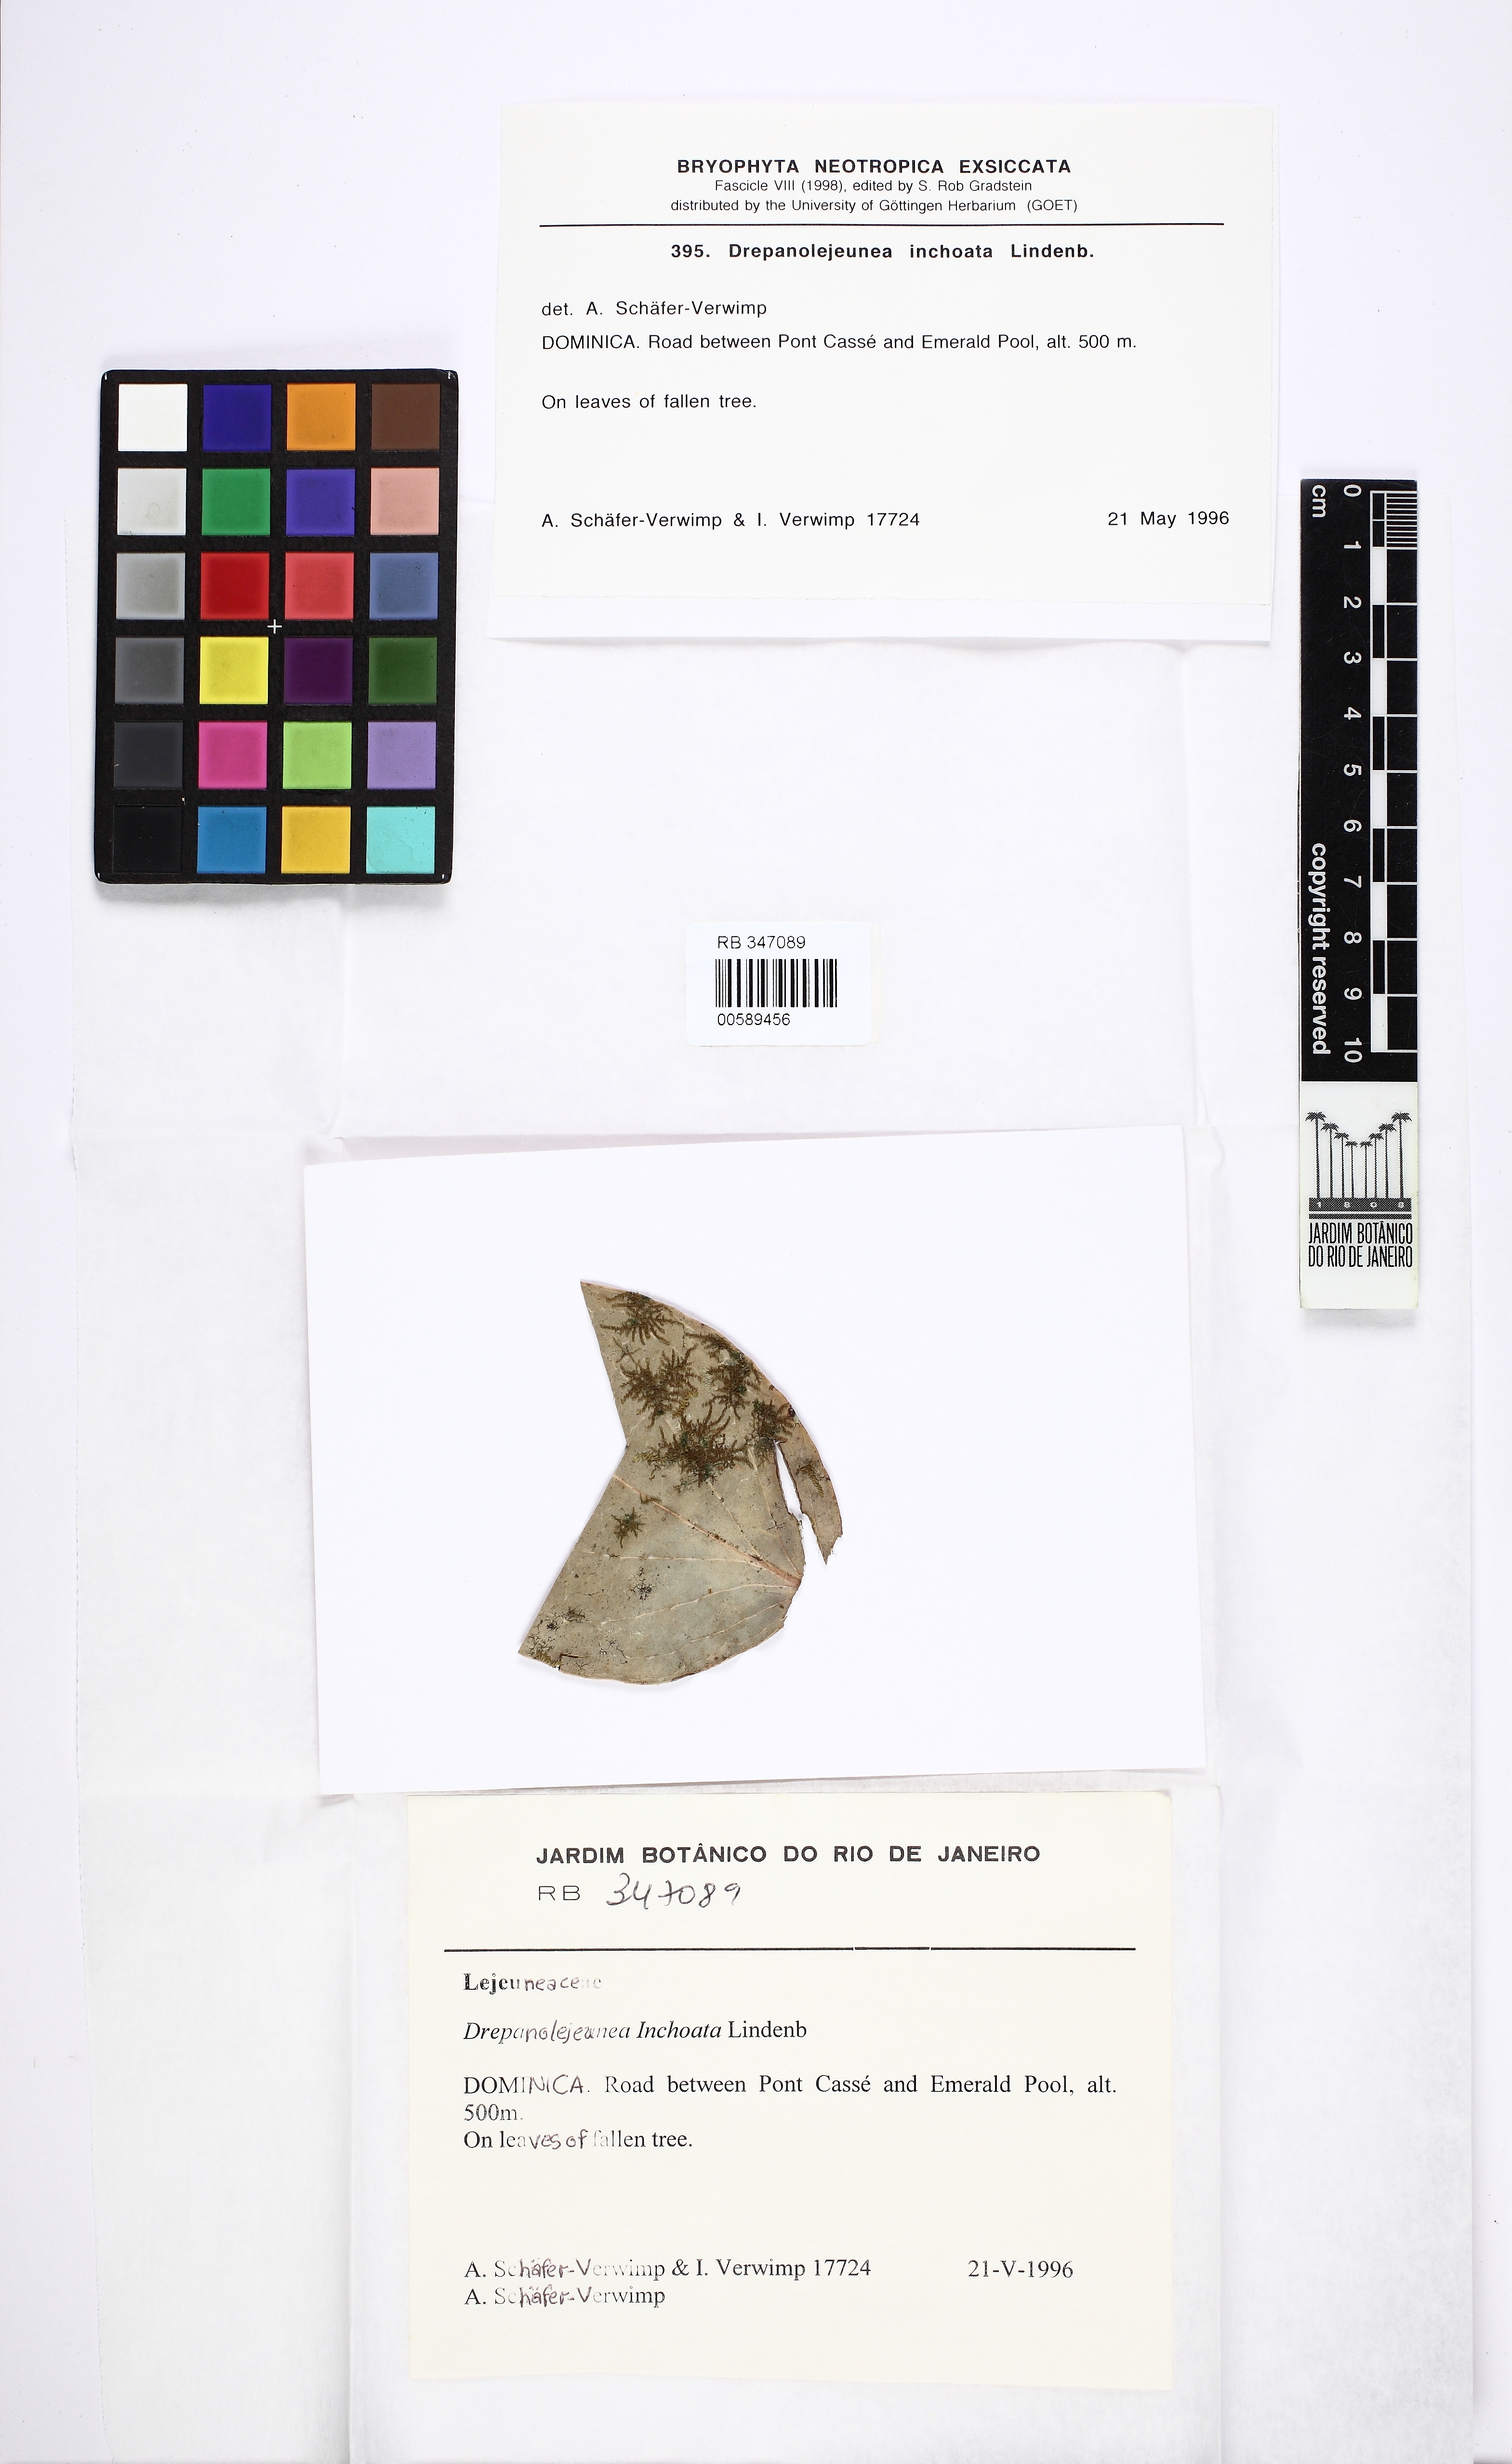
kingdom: Plantae
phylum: Marchantiophyta
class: Jungermanniopsida
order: Porellales
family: Lejeuneaceae
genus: Drepanolejeunea
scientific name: Drepanolejeunea inchoata
